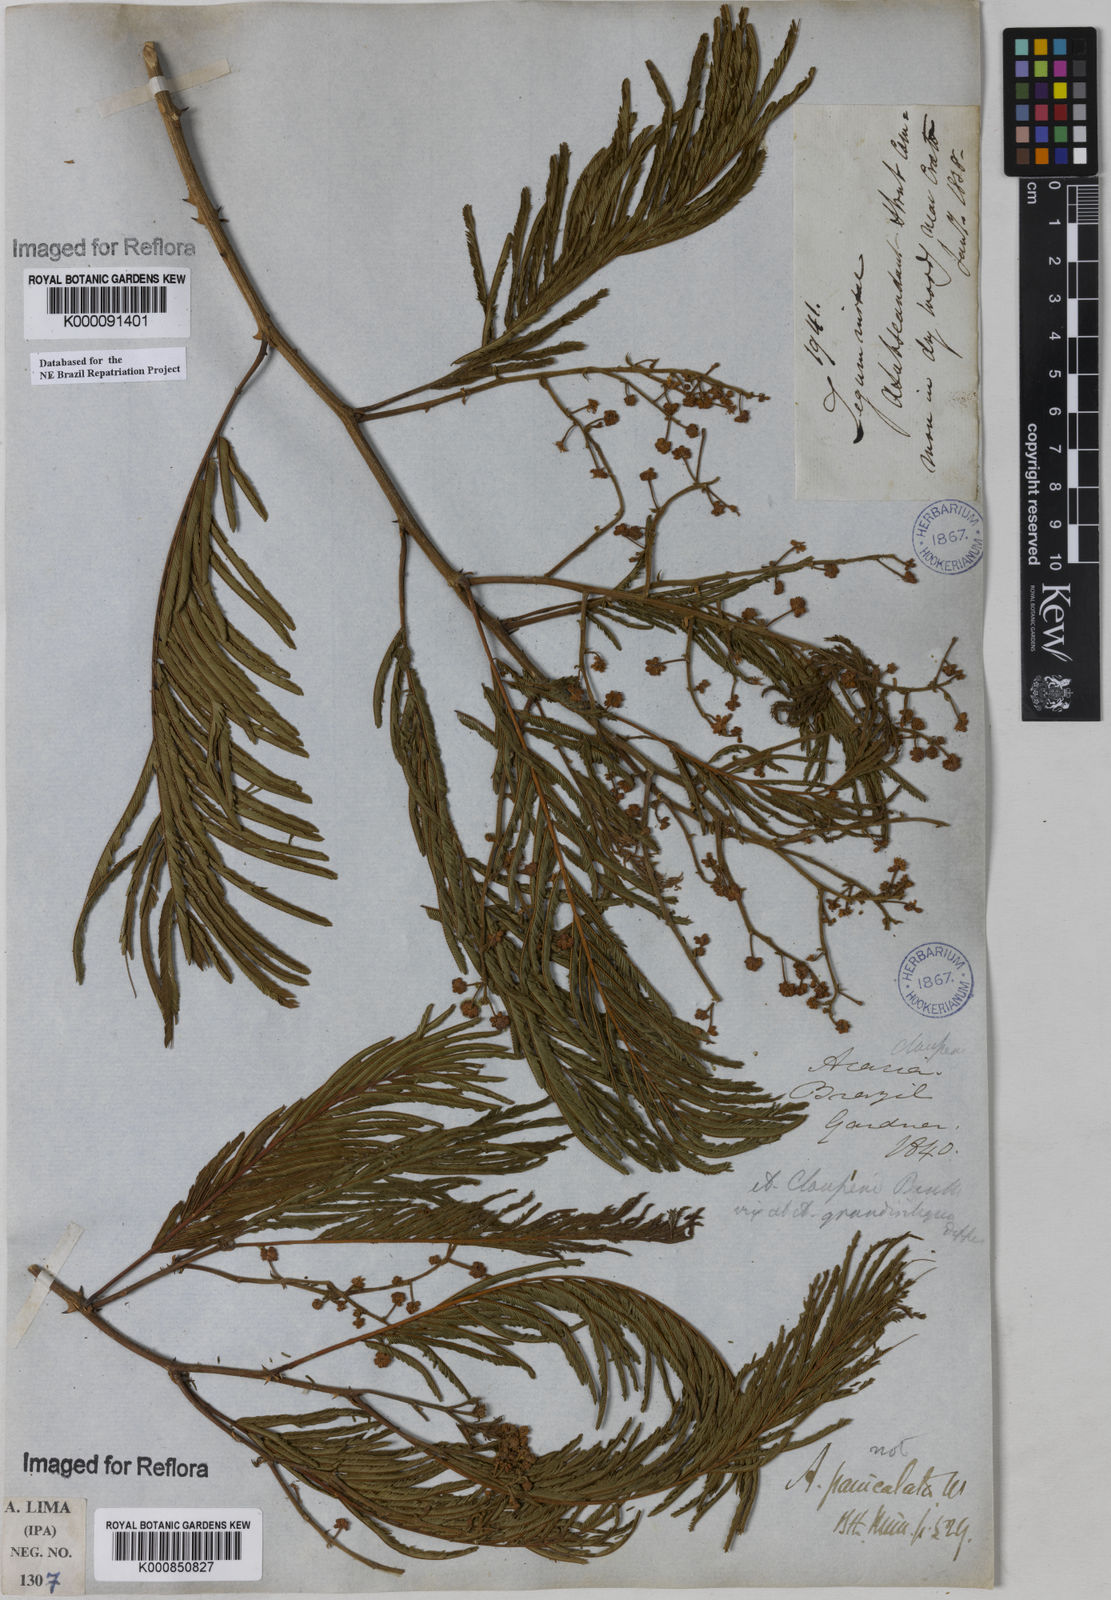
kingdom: Plantae
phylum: Tracheophyta
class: Magnoliopsida
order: Fabales
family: Fabaceae
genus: Senegalia
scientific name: Senegalia tenuifolia
